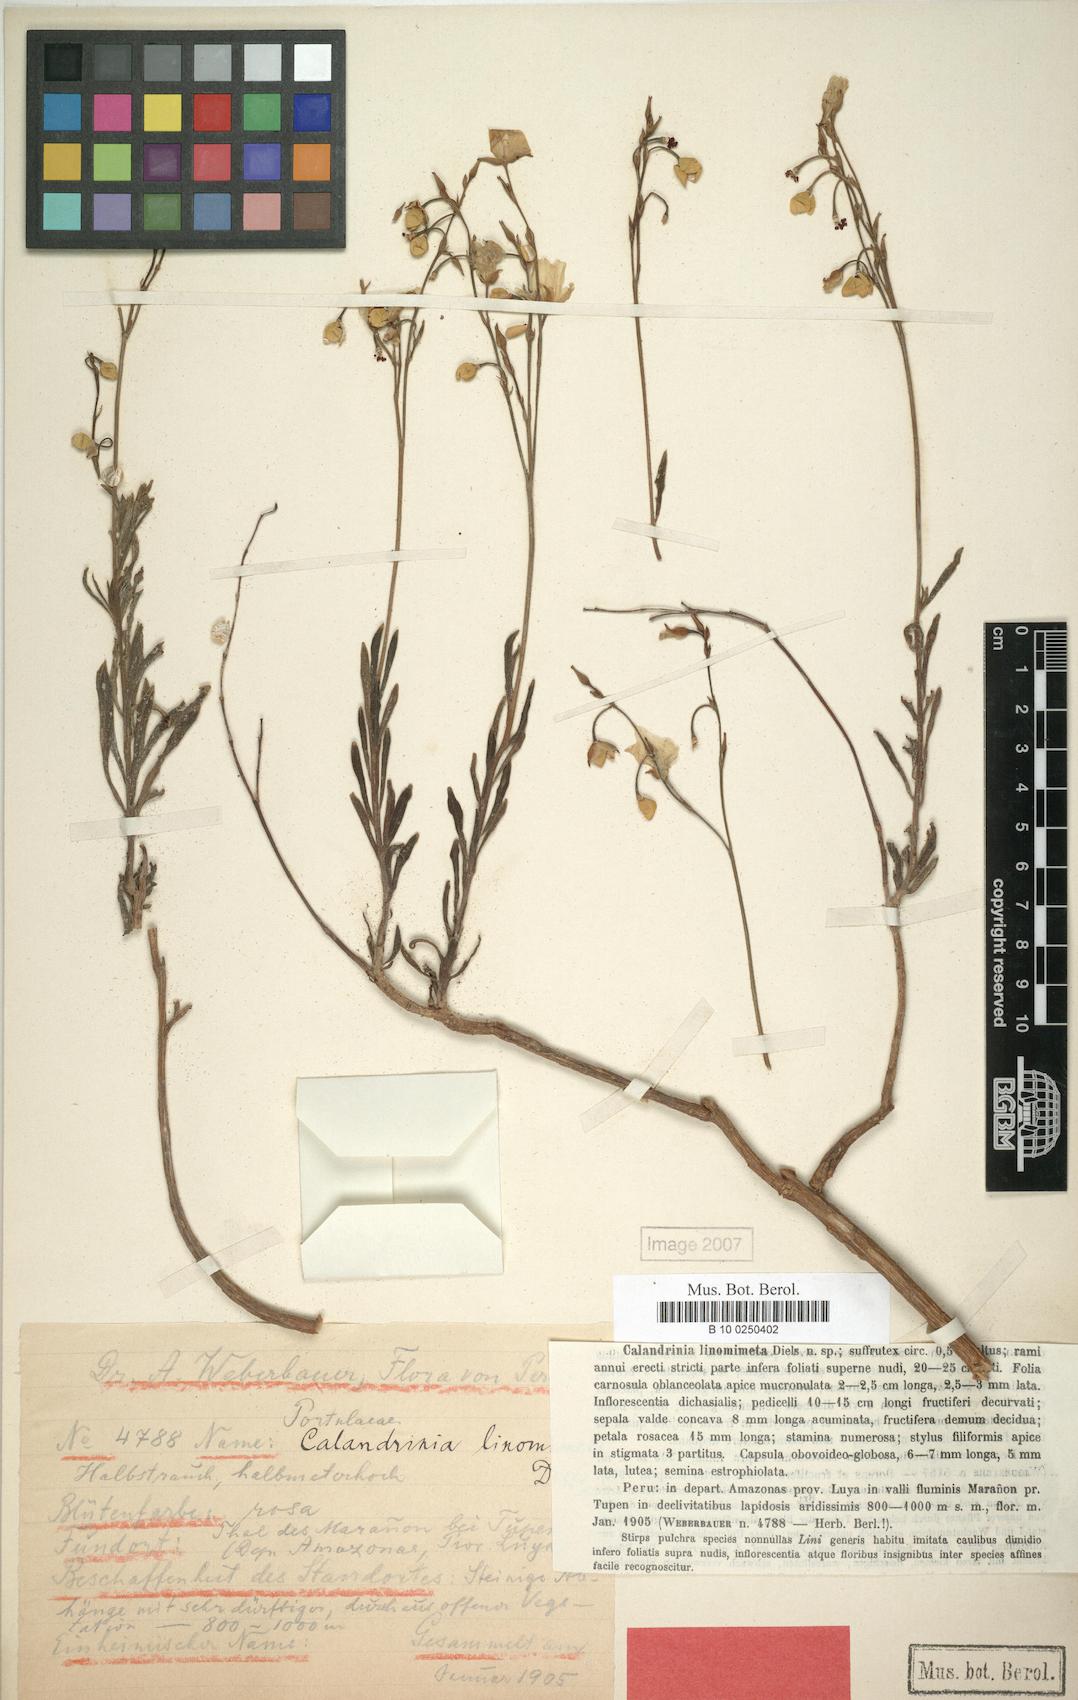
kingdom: Plantae
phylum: Tracheophyta
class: Magnoliopsida
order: Caryophyllales
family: Montiaceae
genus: Calandrinia
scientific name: Calandrinia linomimeta
